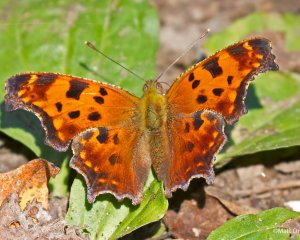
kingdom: Animalia
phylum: Arthropoda
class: Insecta
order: Lepidoptera
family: Nymphalidae
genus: Polygonia
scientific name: Polygonia comma
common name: Eastern Comma
